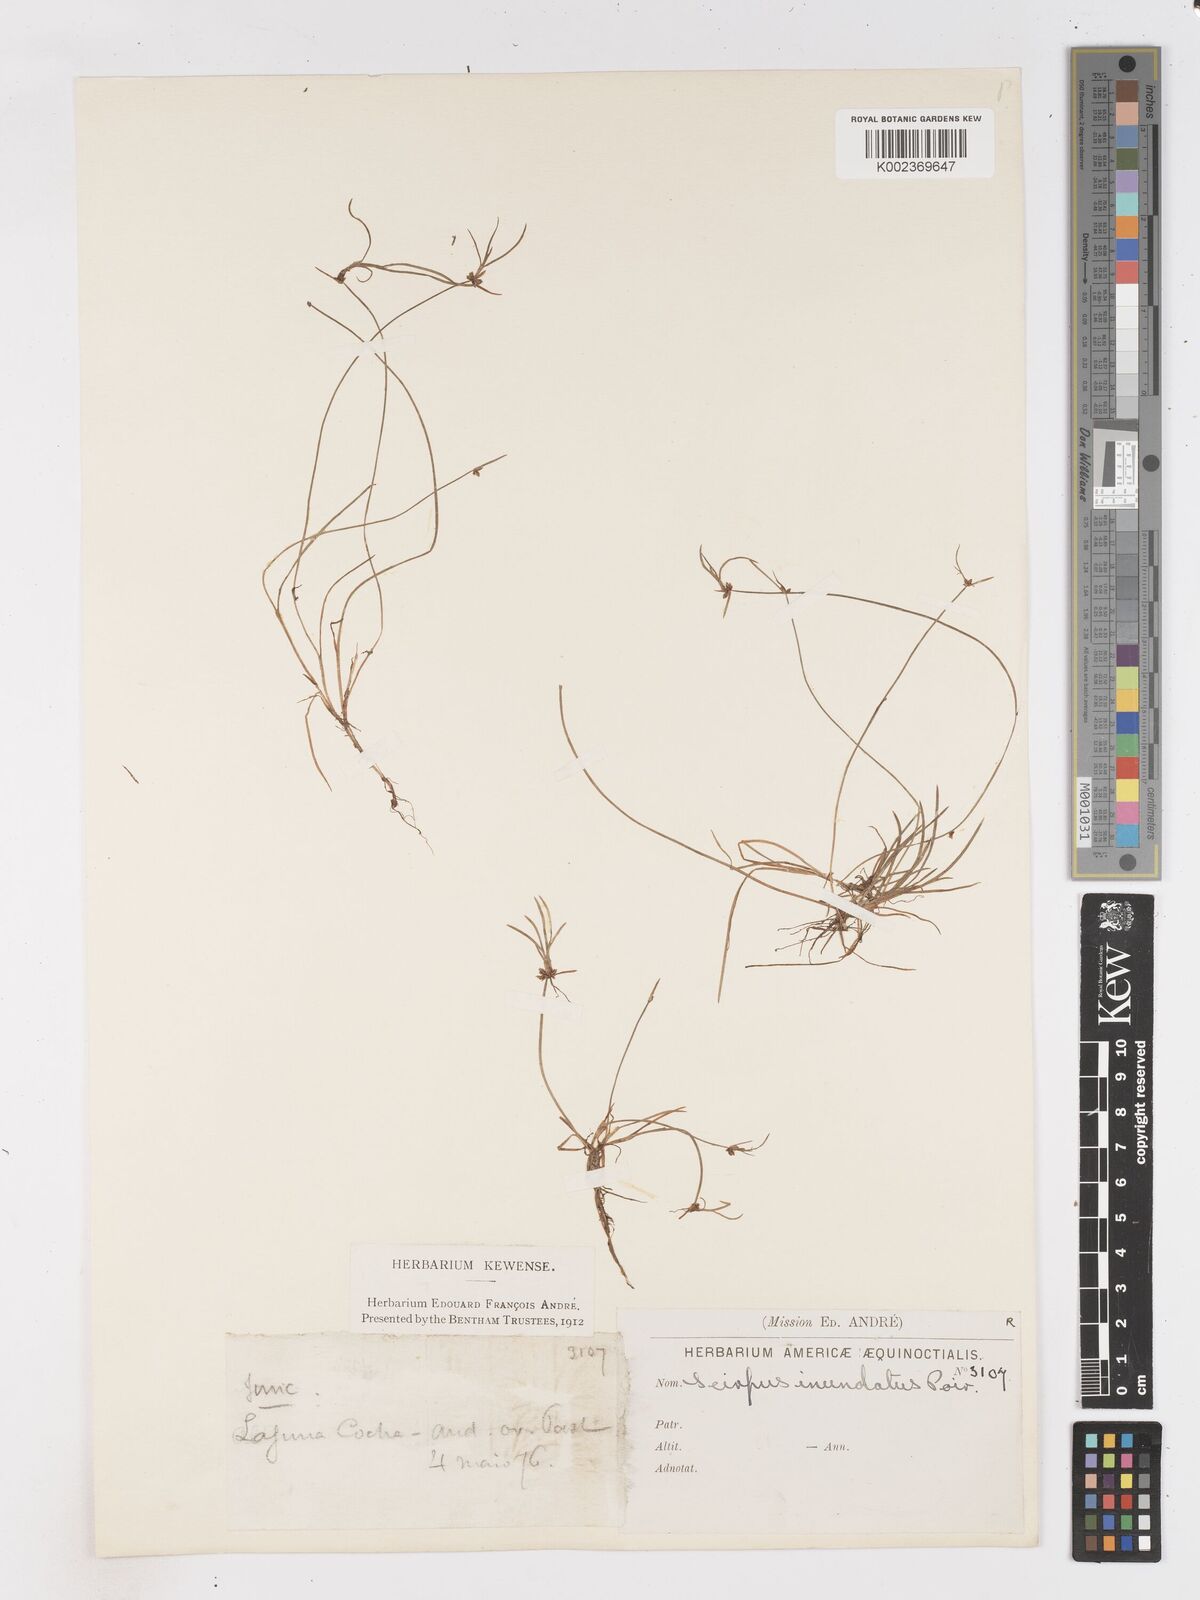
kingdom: Plantae
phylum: Tracheophyta
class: Liliopsida
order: Poales
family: Cyperaceae
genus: Isolepis
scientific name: Isolepis inundata
